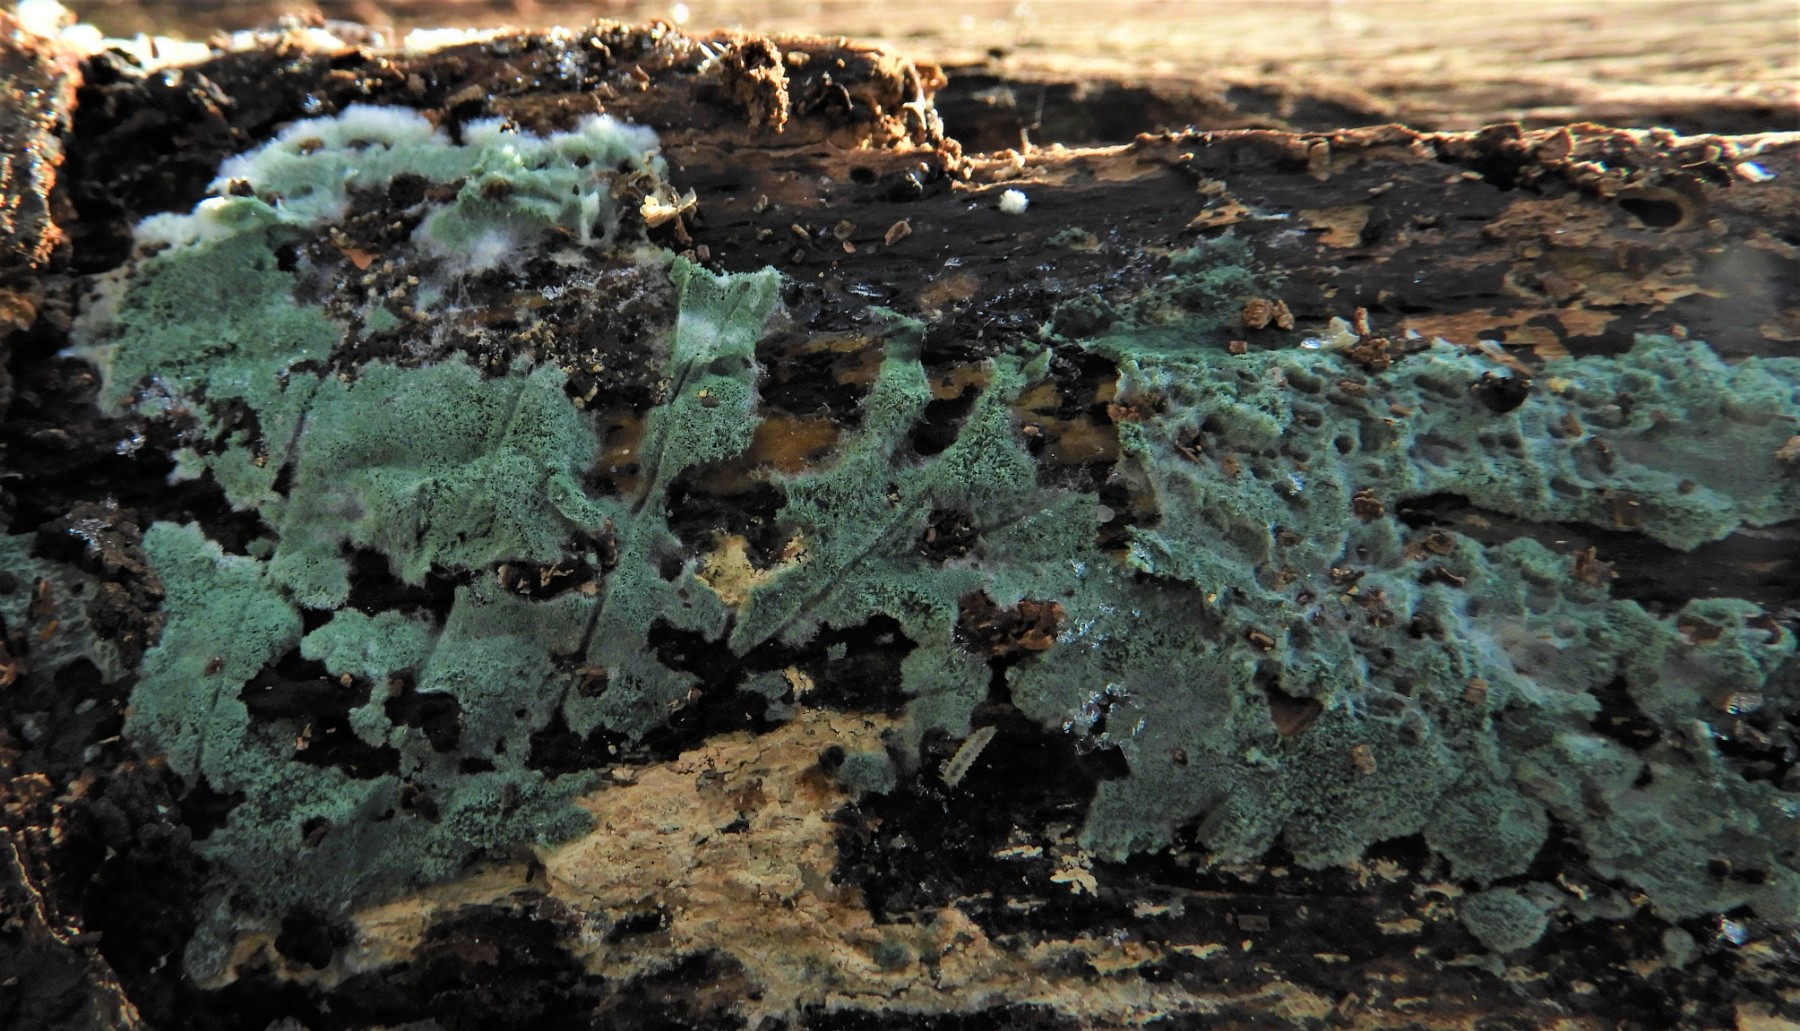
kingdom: Fungi
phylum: Ascomycota
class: Sordariomycetes
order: Hypocreales
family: Hypocreaceae
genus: Trichoderma
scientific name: Trichoderma
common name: kødkerne
